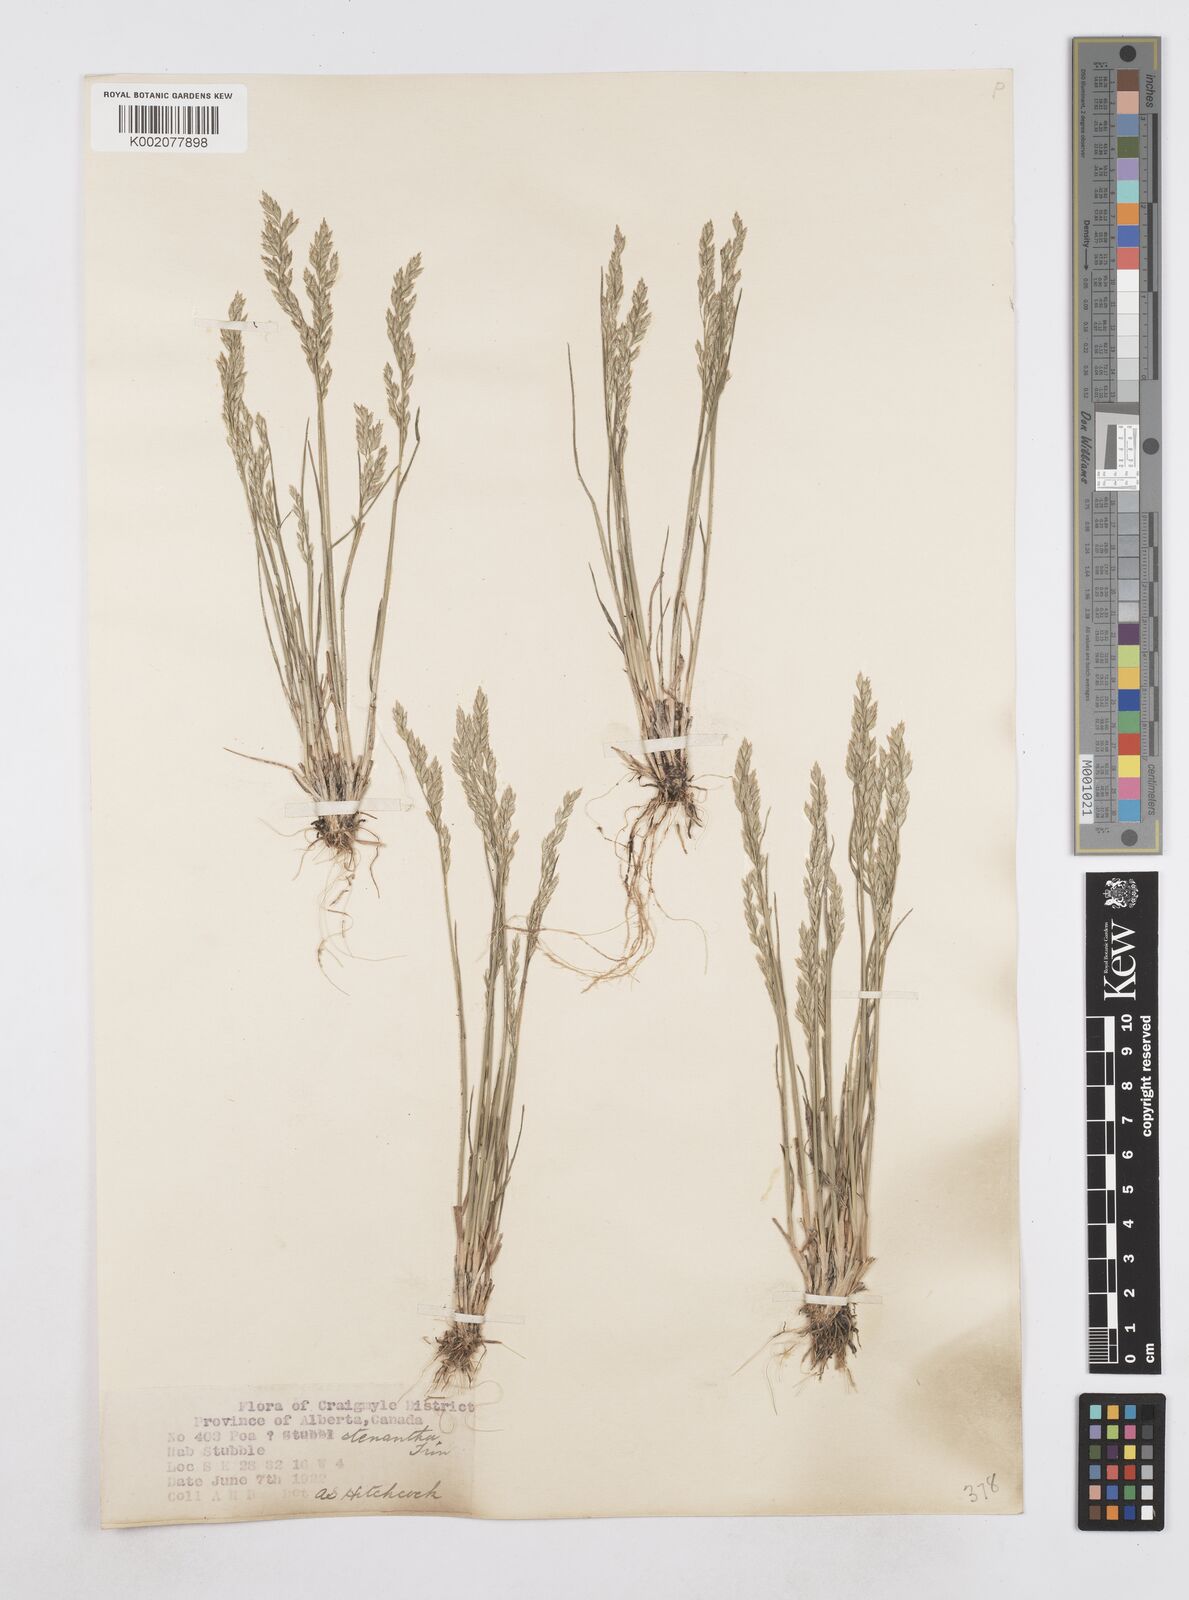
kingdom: Plantae
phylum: Tracheophyta
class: Liliopsida
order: Poales
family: Poaceae
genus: Poa
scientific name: Poa stenantha
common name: Narrow-flowered bluegrass
